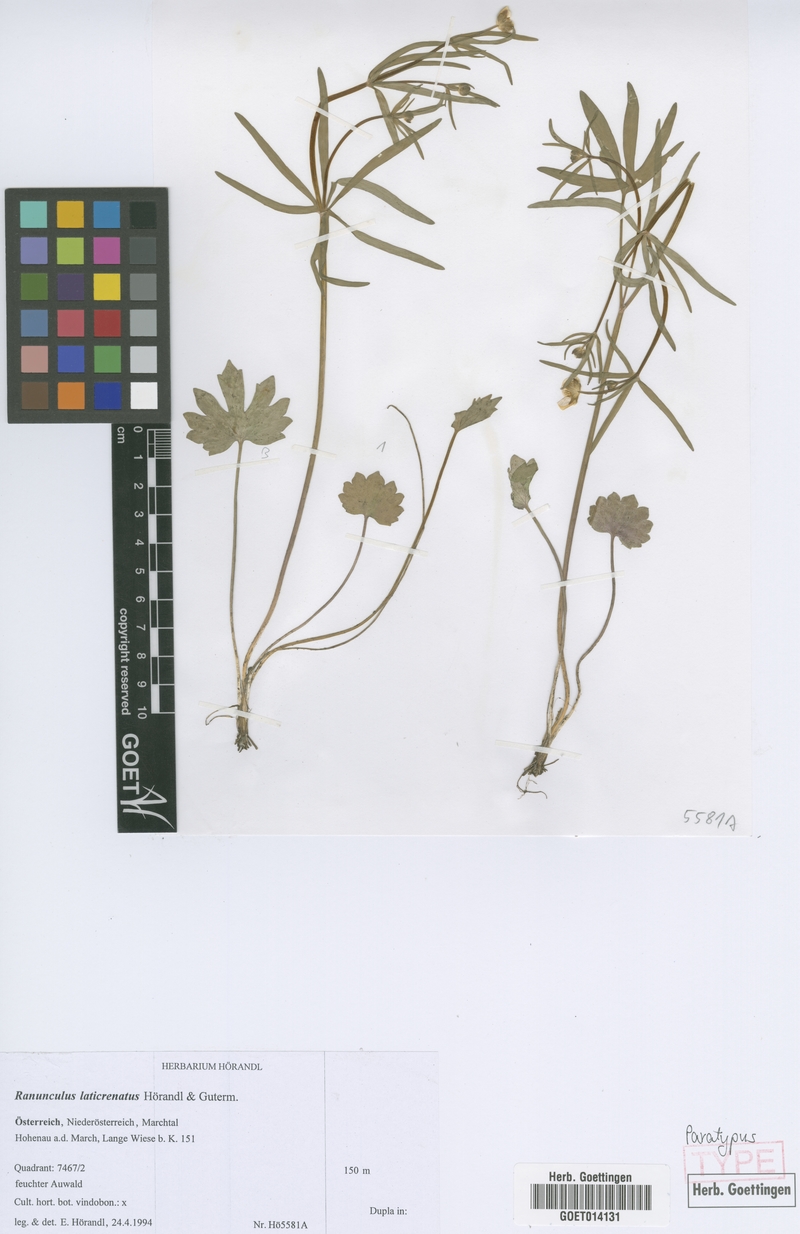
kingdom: Plantae
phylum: Tracheophyta
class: Magnoliopsida
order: Ranunculales
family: Ranunculaceae
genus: Ranunculus
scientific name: Ranunculus laticrenatus
